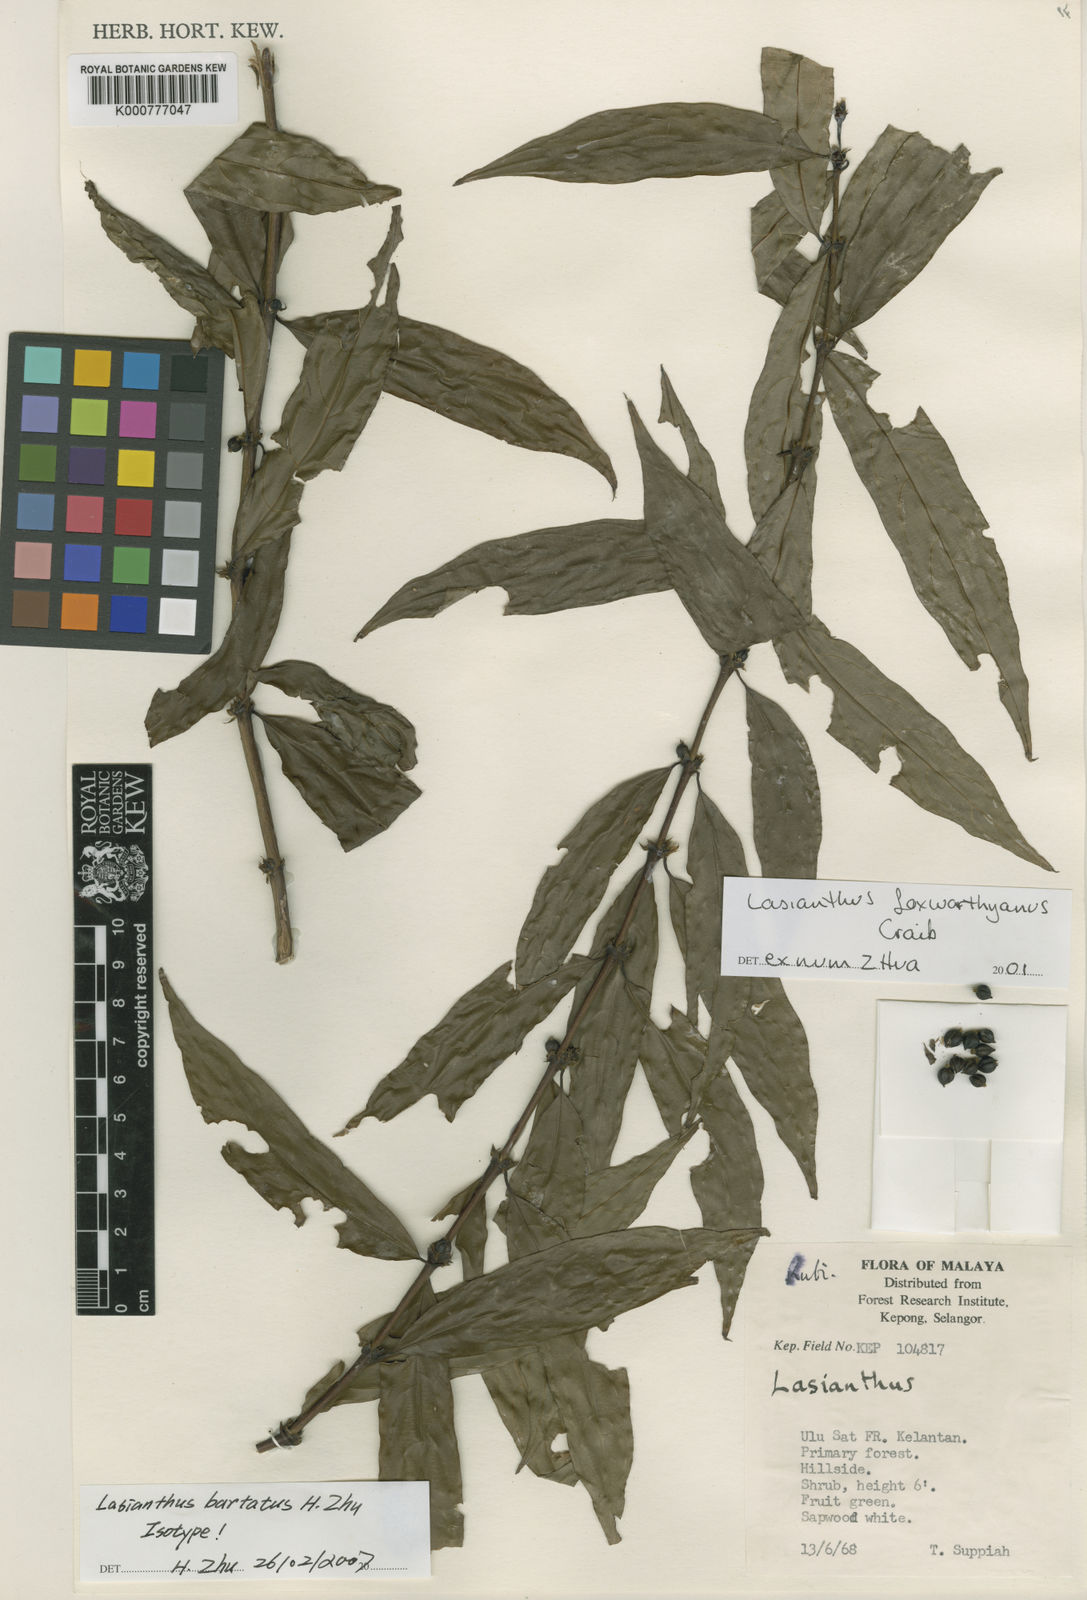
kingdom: Plantae
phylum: Tracheophyta
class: Magnoliopsida
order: Gentianales
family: Rubiaceae
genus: Lasianthus
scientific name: Lasianthus
